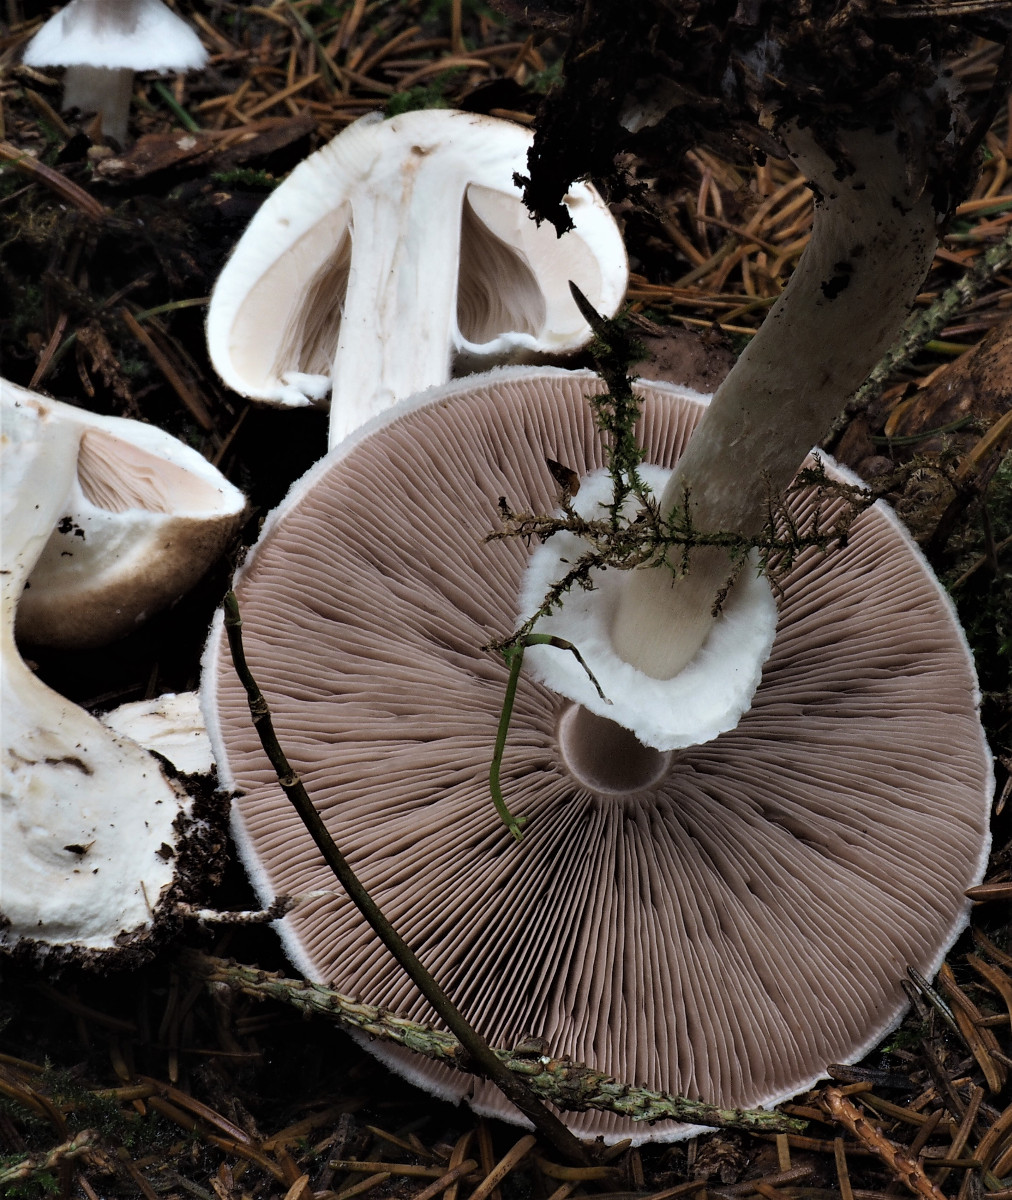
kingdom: Fungi
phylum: Basidiomycota
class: Agaricomycetes
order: Agaricales
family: Agaricaceae
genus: Agaricus
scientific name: Agaricus impudicus
